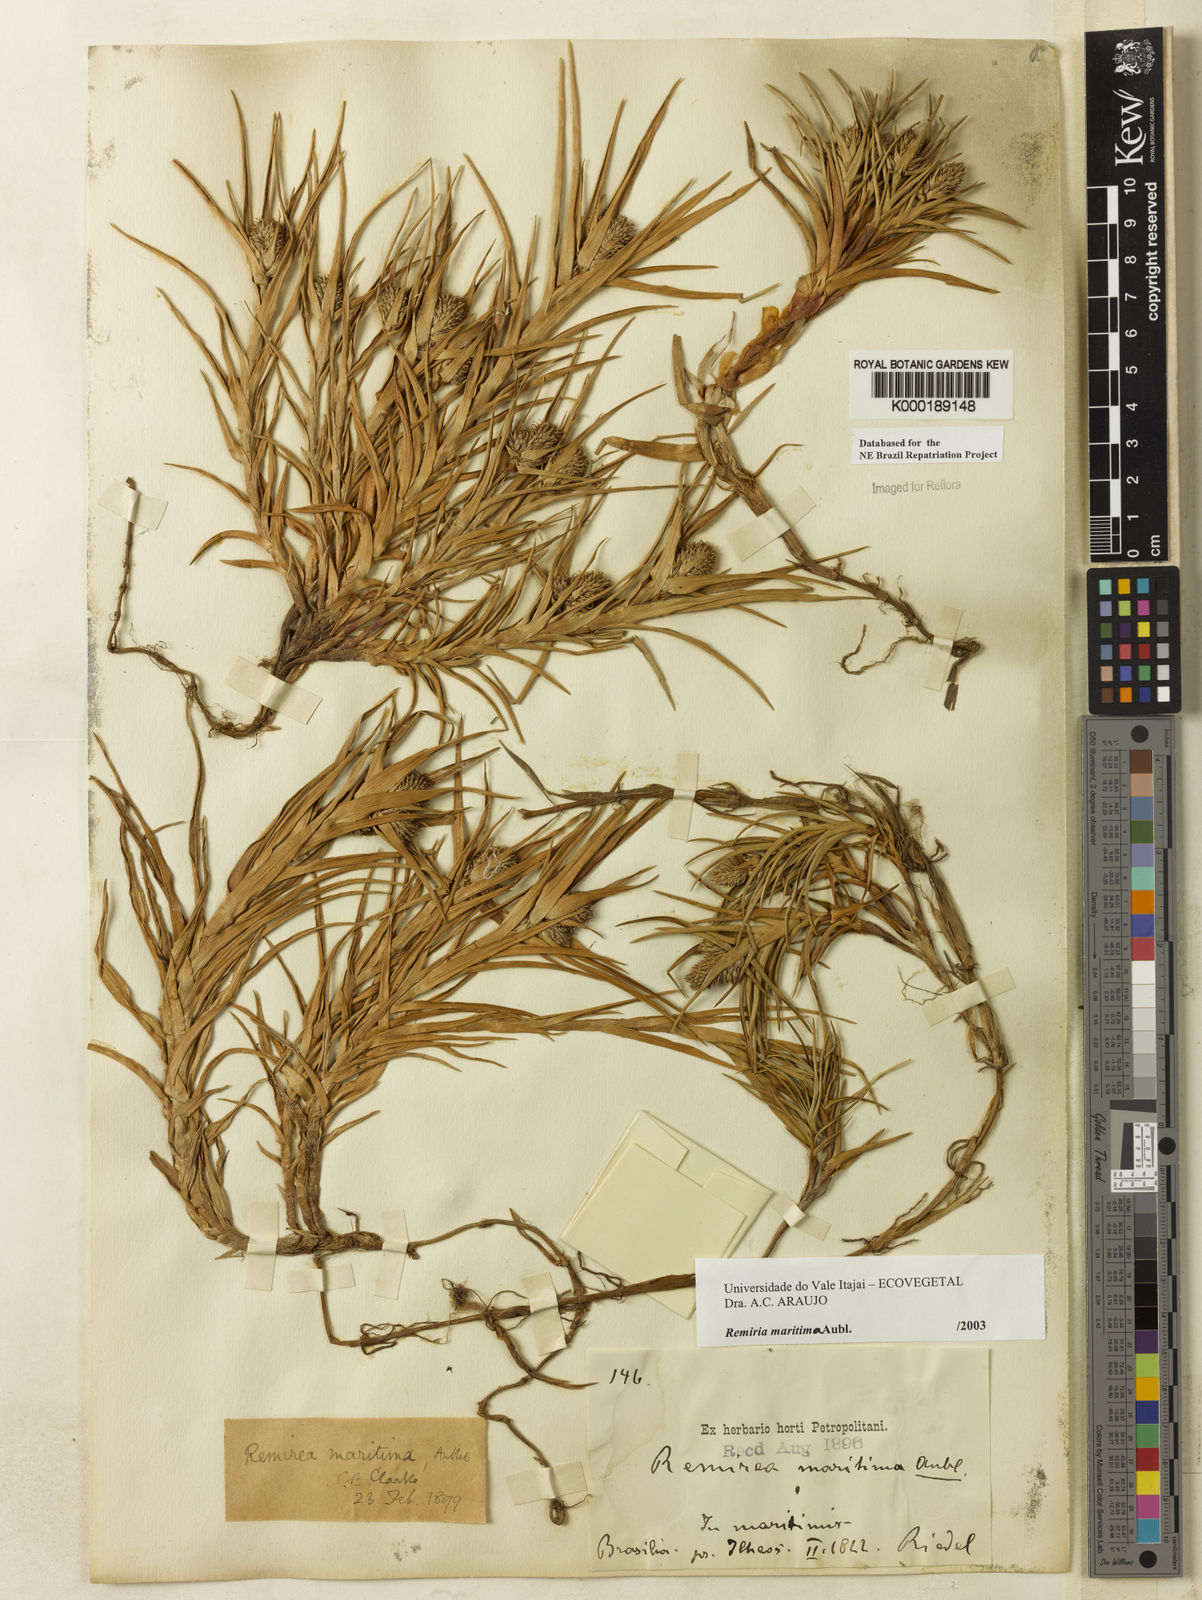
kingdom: Plantae
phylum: Tracheophyta
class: Liliopsida
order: Poales
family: Cyperaceae
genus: Cyperus
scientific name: Cyperus pedunculatus
